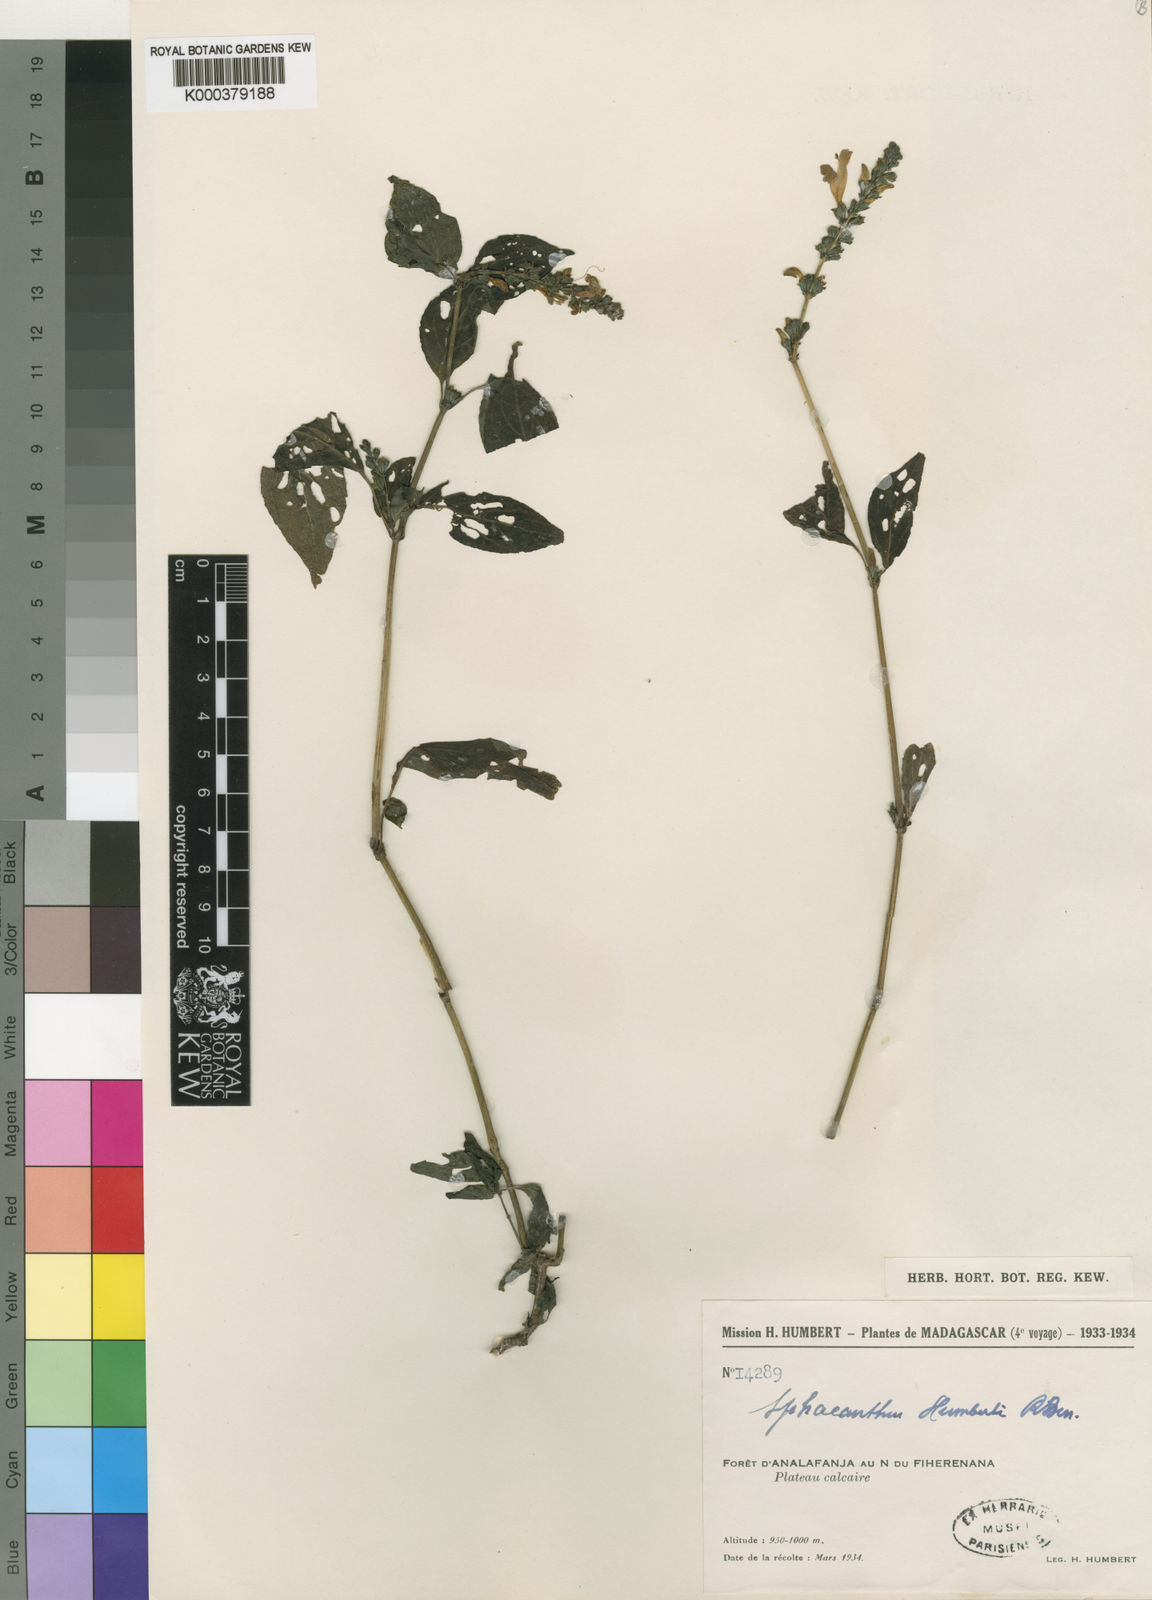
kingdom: Plantae
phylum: Tracheophyta
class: Magnoliopsida
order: Lamiales
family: Acanthaceae
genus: Sphacanthus
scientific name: Sphacanthus humbertii
